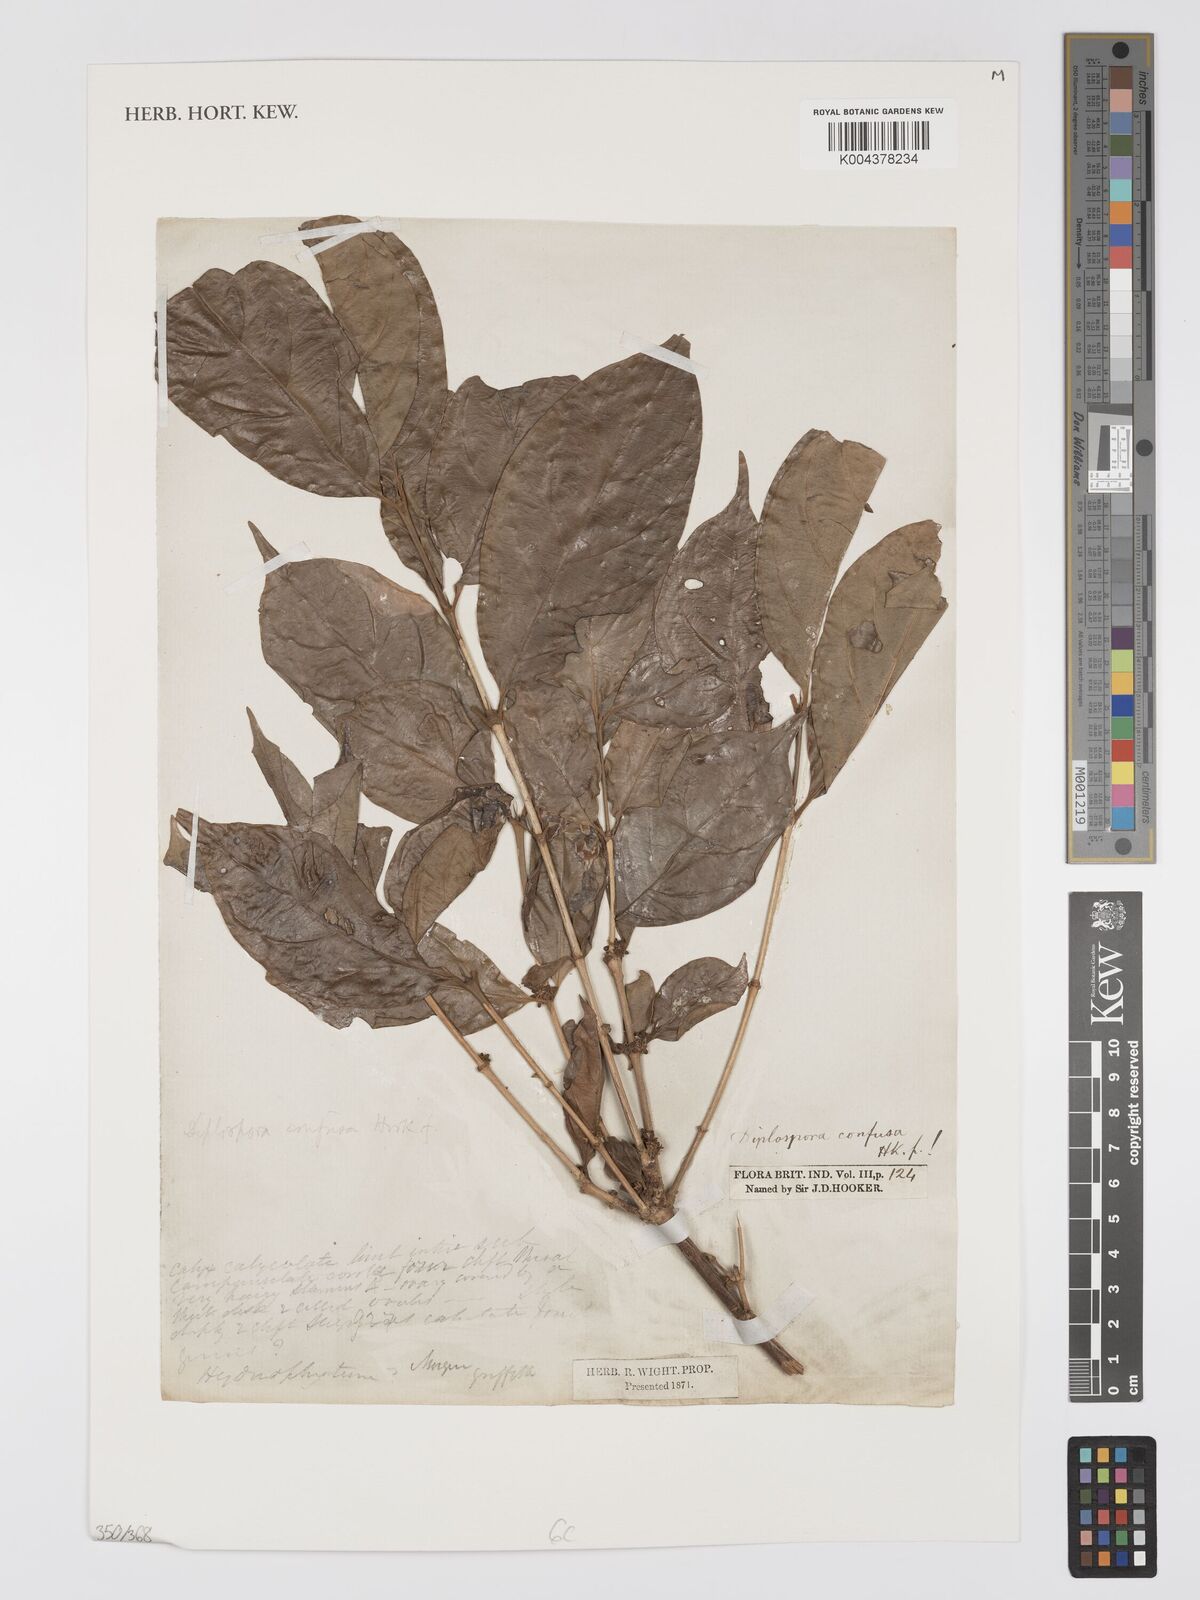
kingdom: Plantae
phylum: Tracheophyta
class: Magnoliopsida
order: Gentianales
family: Rubiaceae
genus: Discospermum
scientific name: Discospermum abnorme
